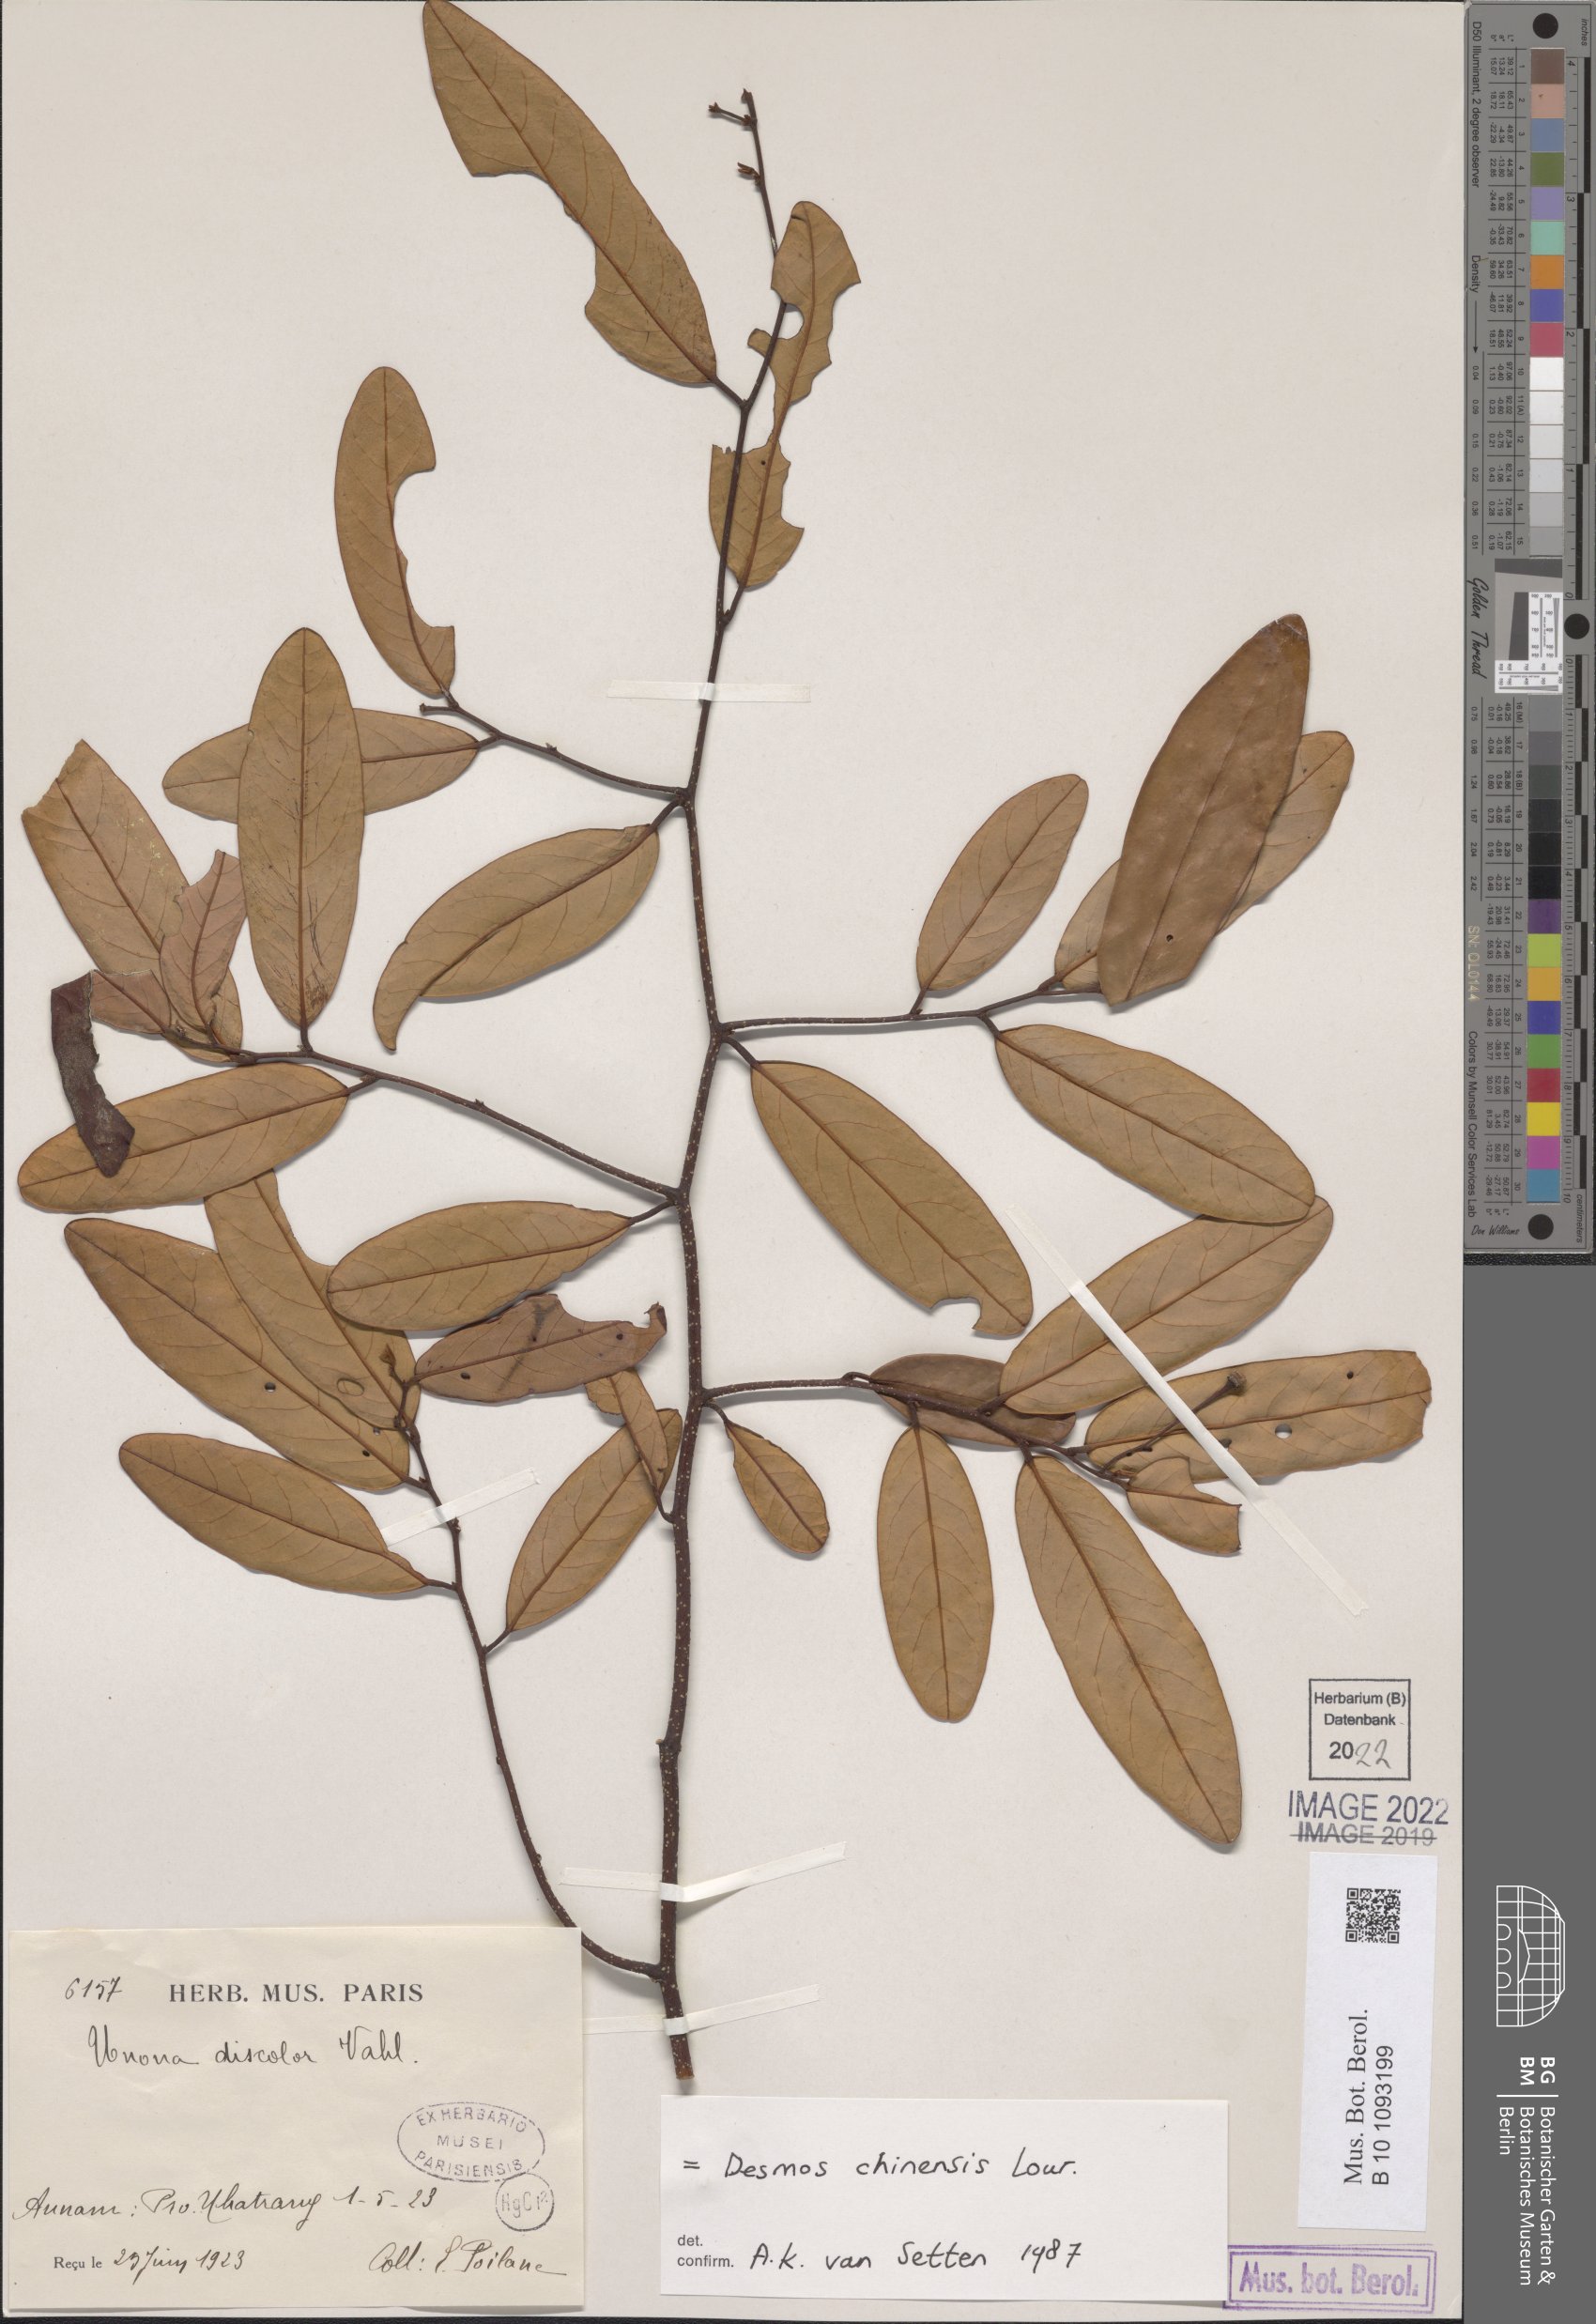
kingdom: Plantae
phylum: Tracheophyta
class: Magnoliopsida
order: Magnoliales
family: Annonaceae
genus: Desmos
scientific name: Desmos chinensis
